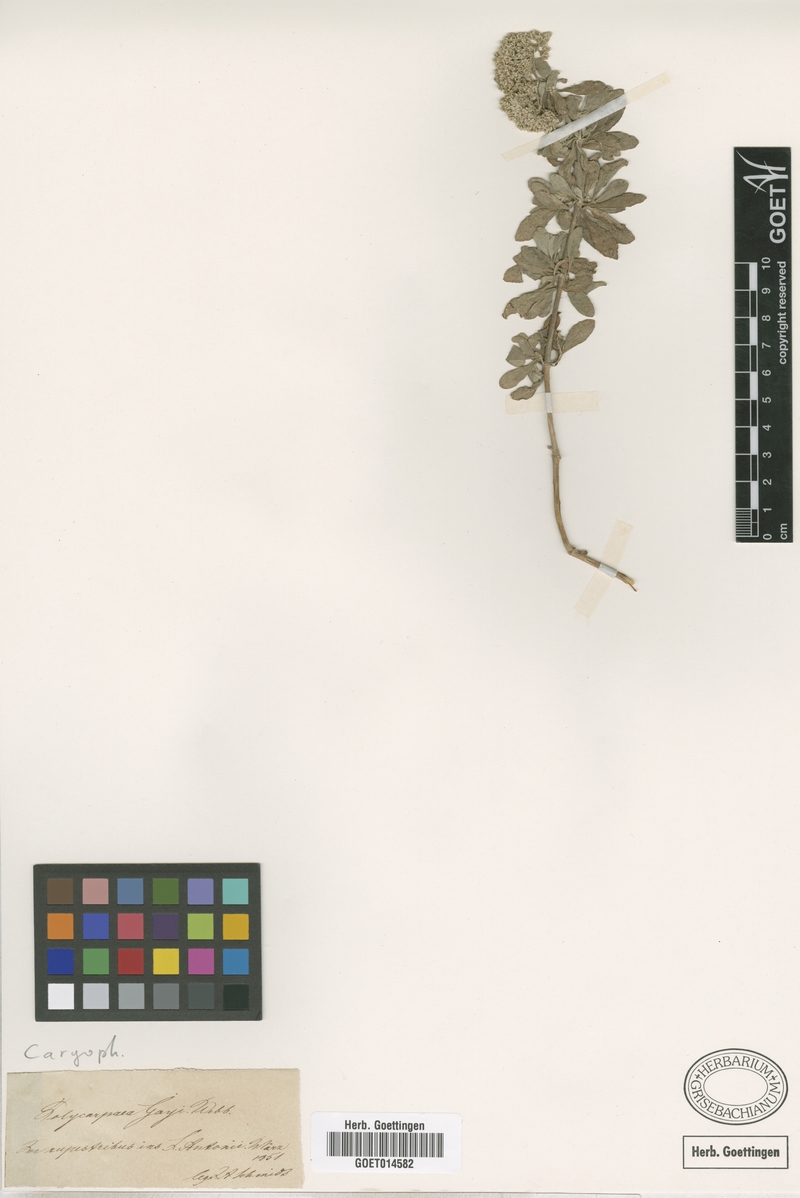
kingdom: Plantae
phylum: Tracheophyta
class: Magnoliopsida
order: Caryophyllales
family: Caryophyllaceae
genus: Polycarpaea
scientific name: Polycarpaea gayi
